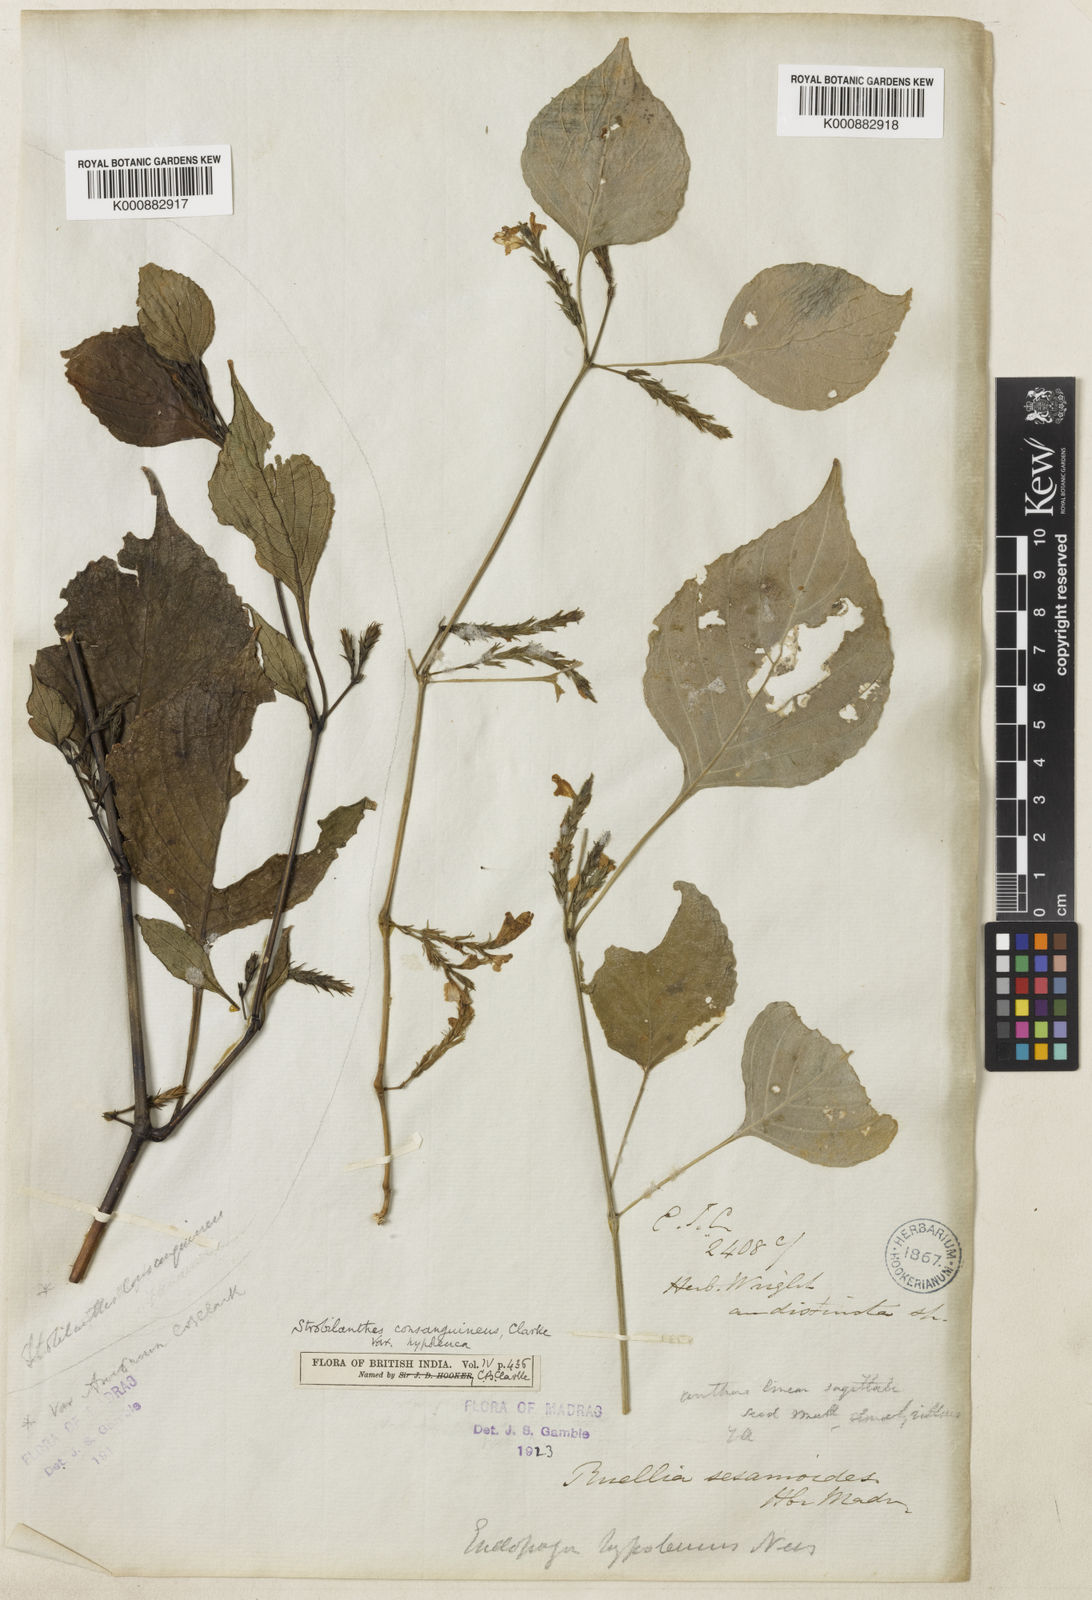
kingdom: Plantae
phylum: Tracheophyta
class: Magnoliopsida
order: Lamiales
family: Acanthaceae
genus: Strobilanthes
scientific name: Strobilanthes diandra
